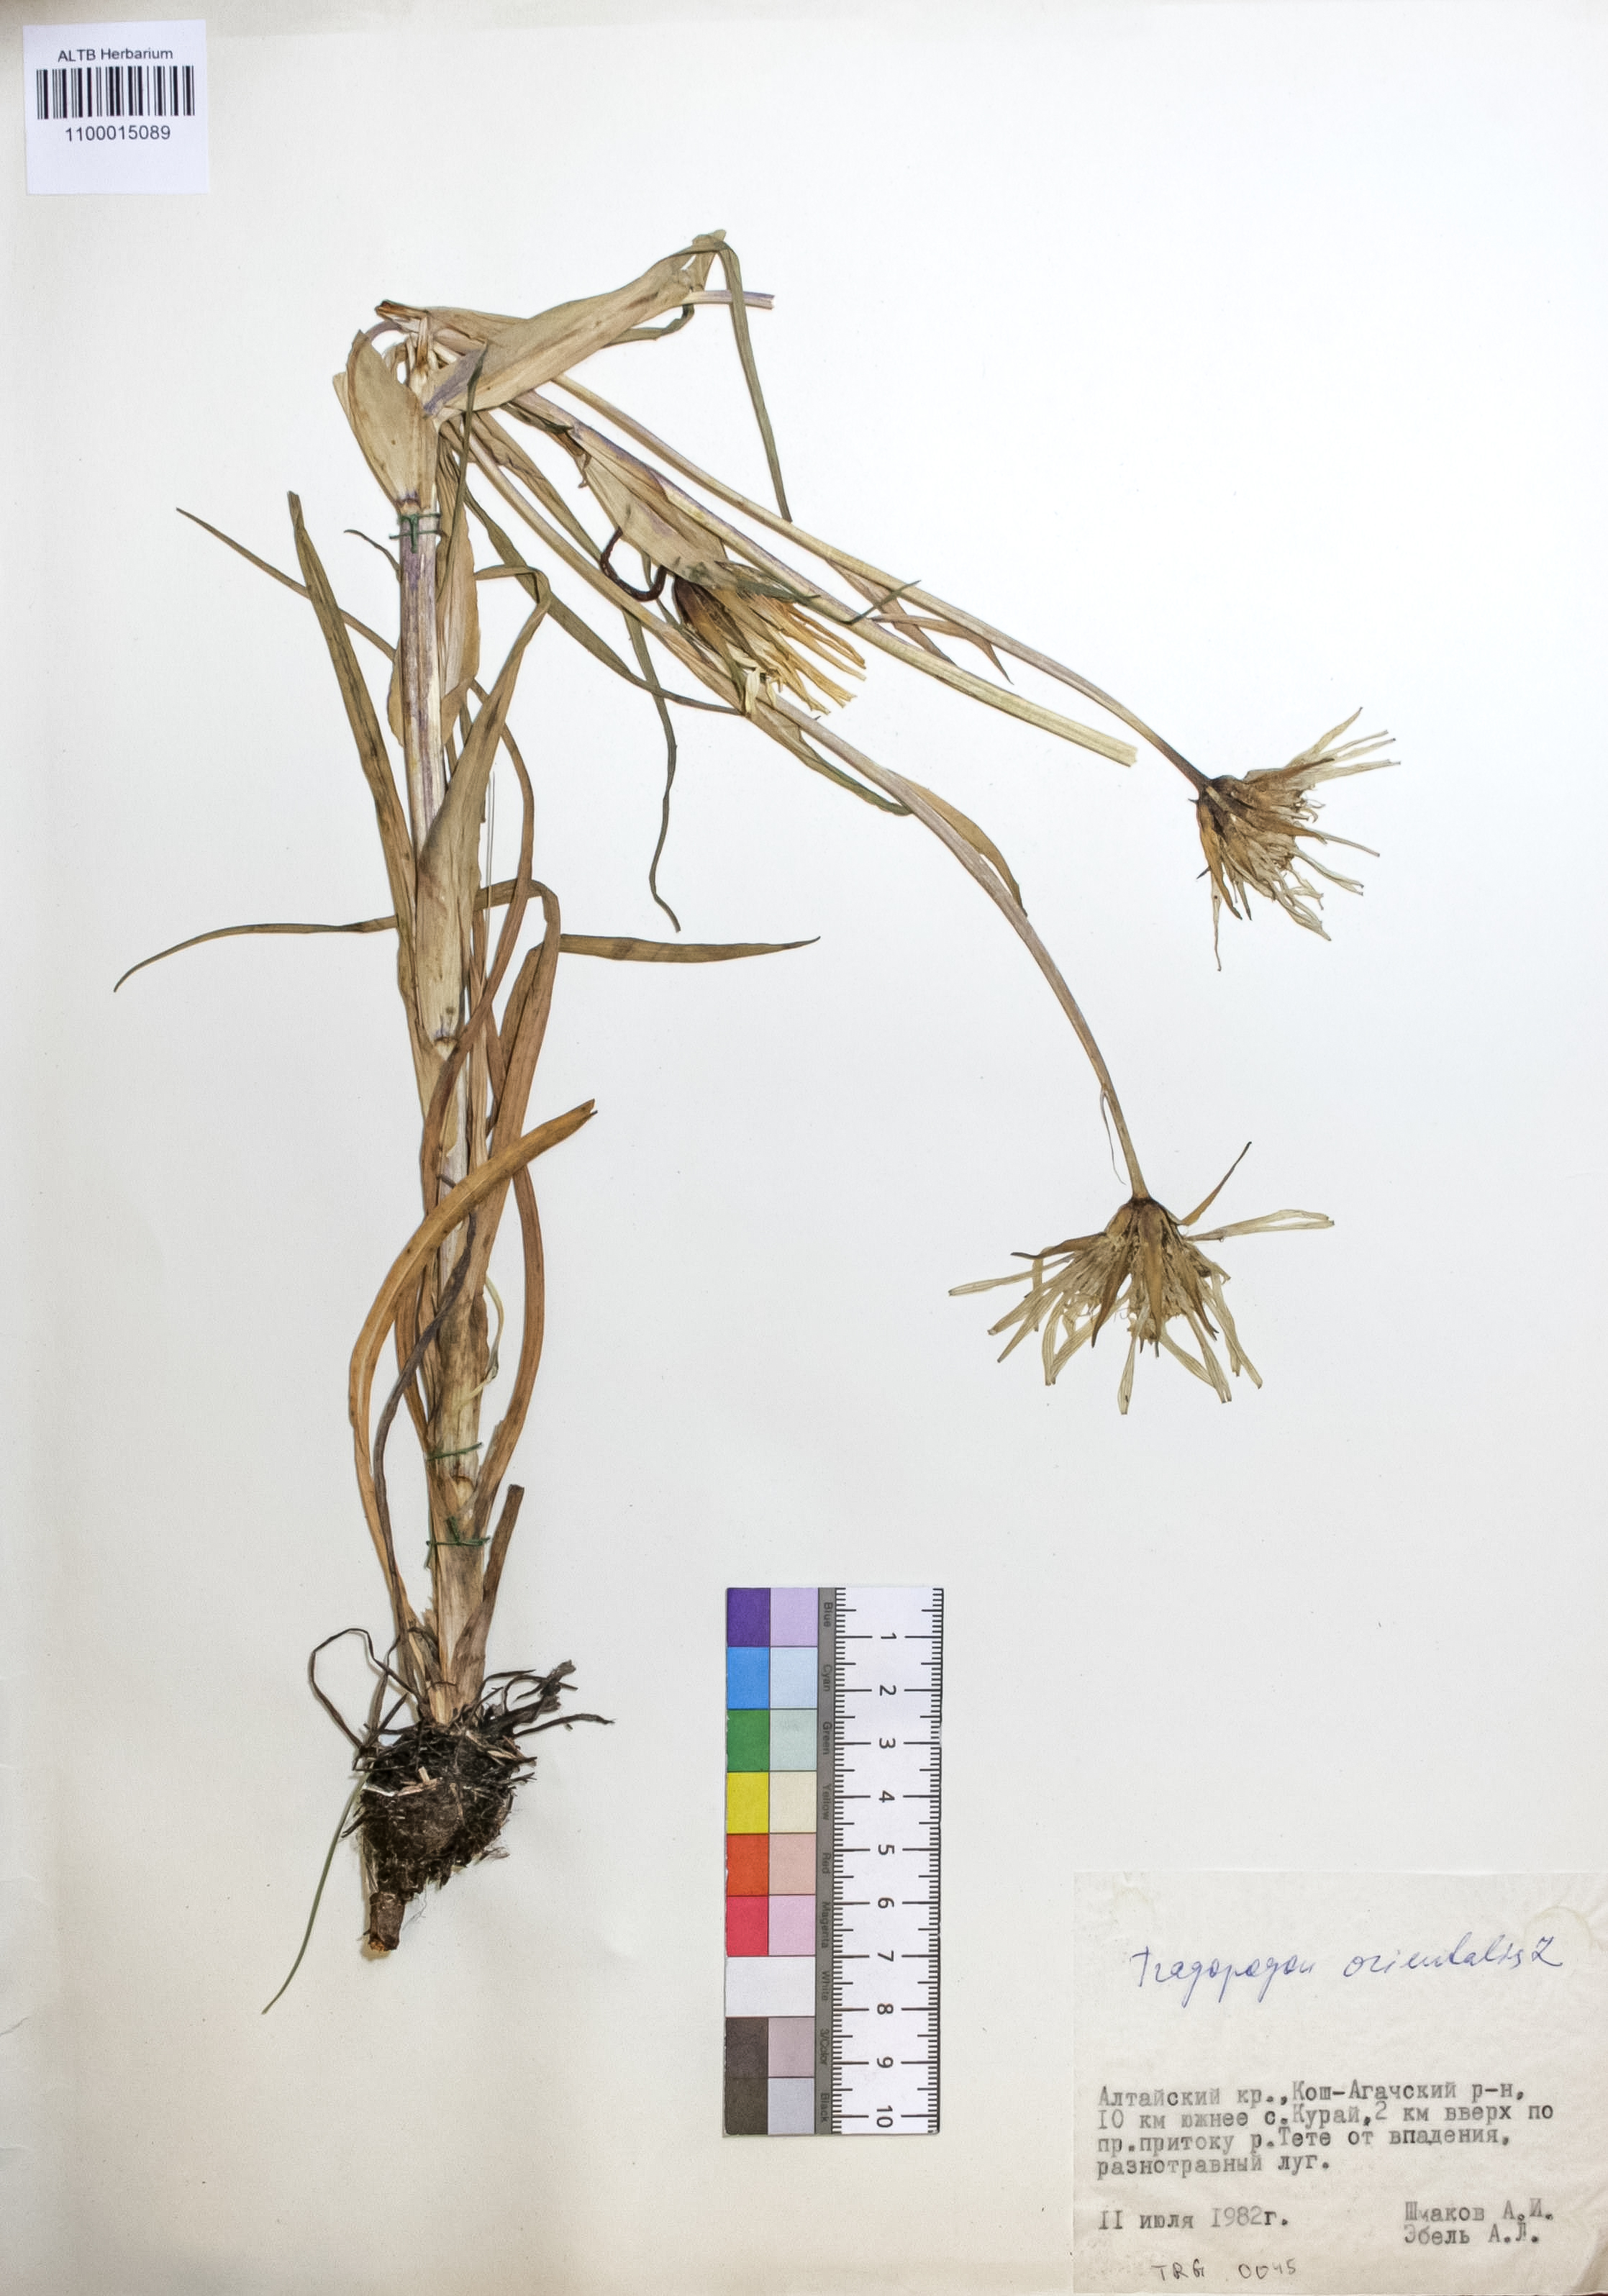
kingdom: Plantae
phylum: Tracheophyta
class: Magnoliopsida
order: Asterales
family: Asteraceae
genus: Tragopogon
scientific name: Tragopogon orientalis
